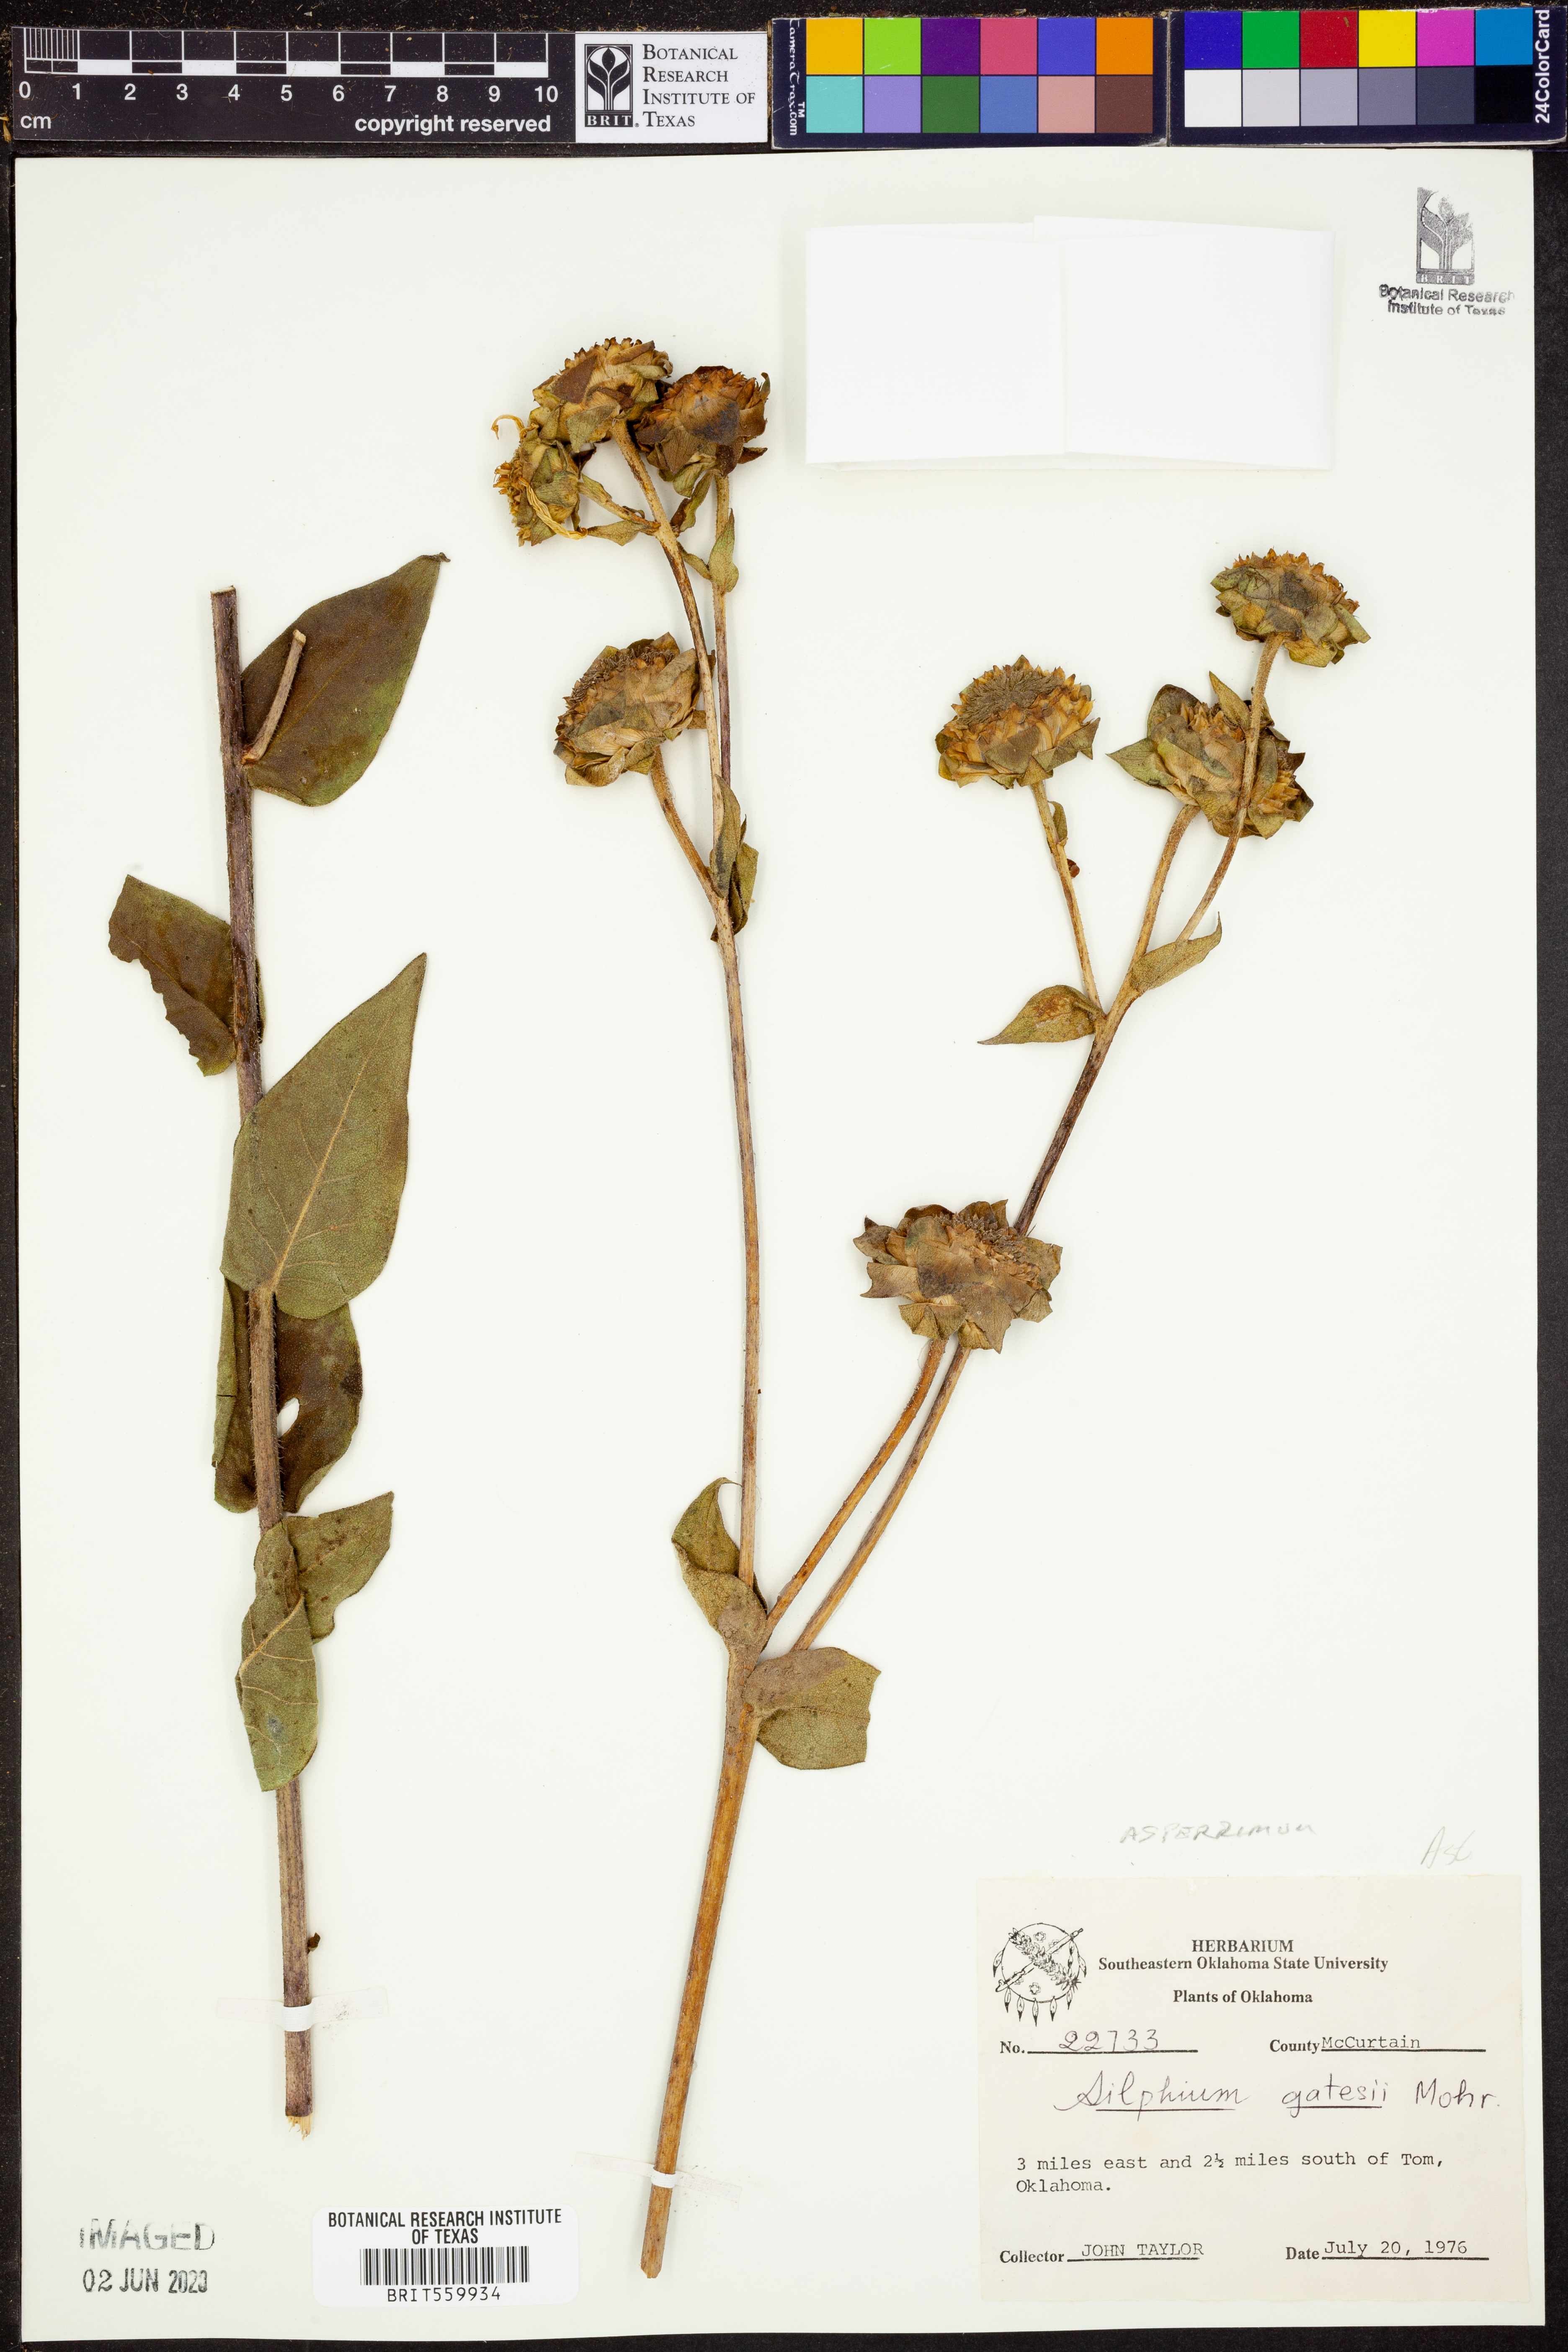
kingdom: Plantae
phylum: Tracheophyta
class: Magnoliopsida
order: Asterales
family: Asteraceae
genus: Silphium
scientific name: Silphium asperrimum
